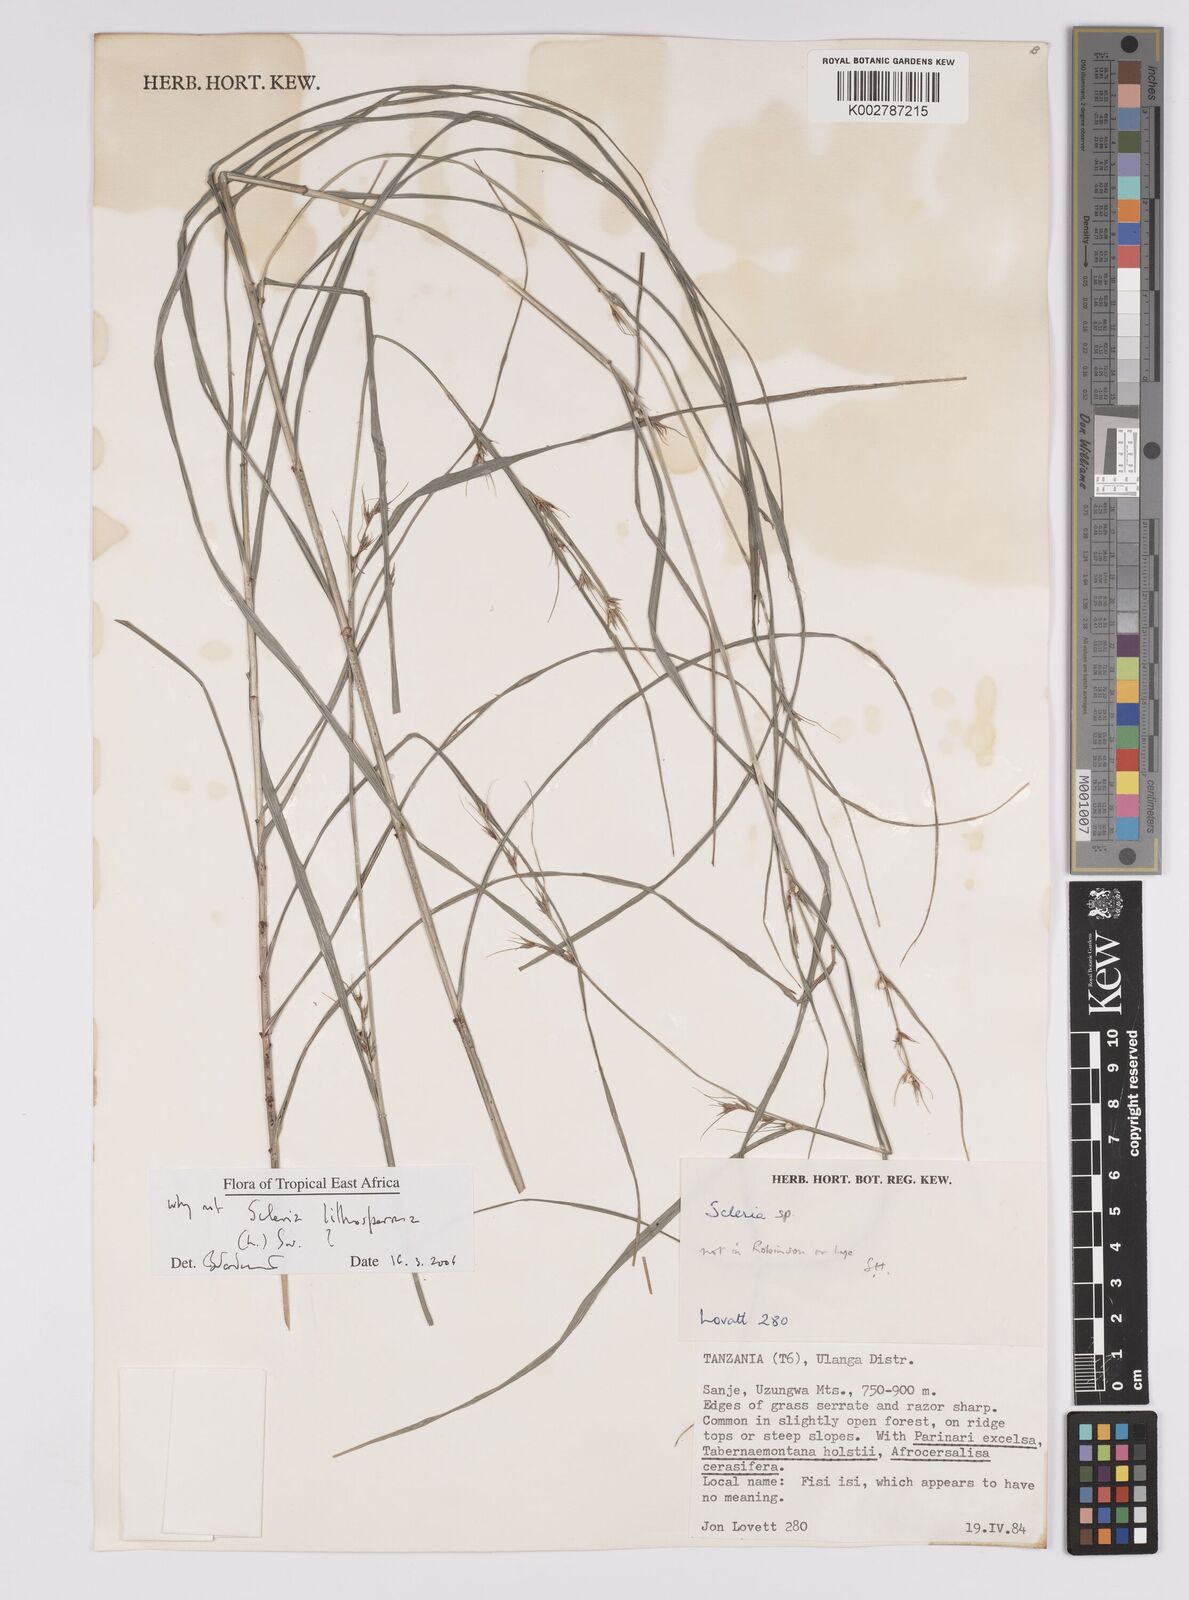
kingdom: Plantae
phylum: Tracheophyta
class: Liliopsida
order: Poales
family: Cyperaceae
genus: Scleria
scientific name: Scleria lithosperma
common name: Florida keys nut-rush
